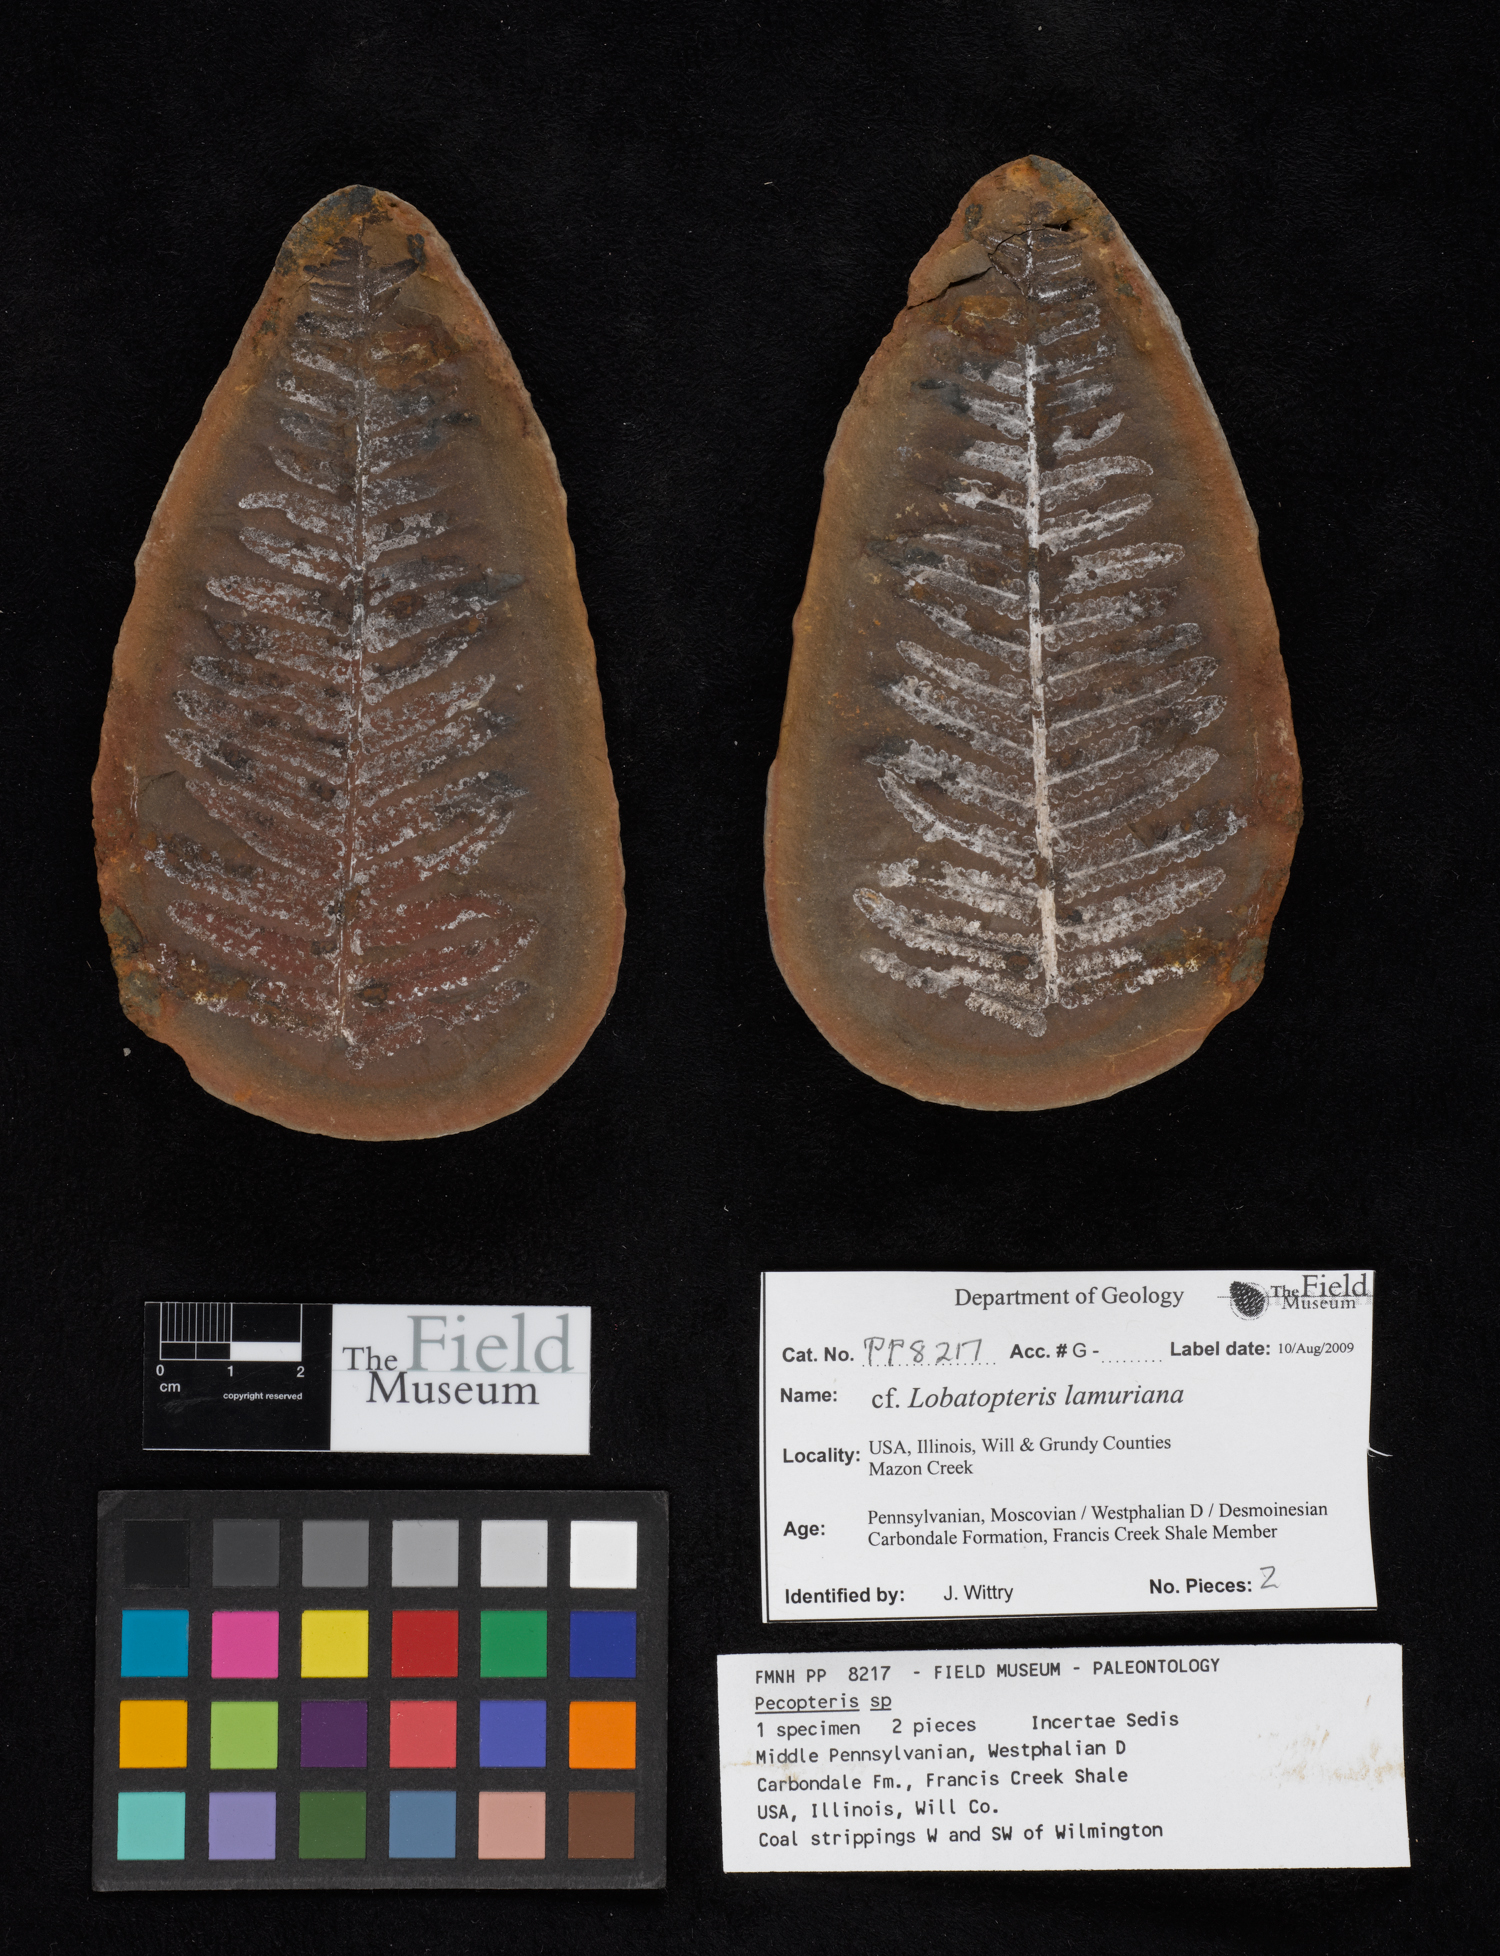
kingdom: Plantae
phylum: Tracheophyta
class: Polypodiopsida
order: Marattiales
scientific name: Marattiales
